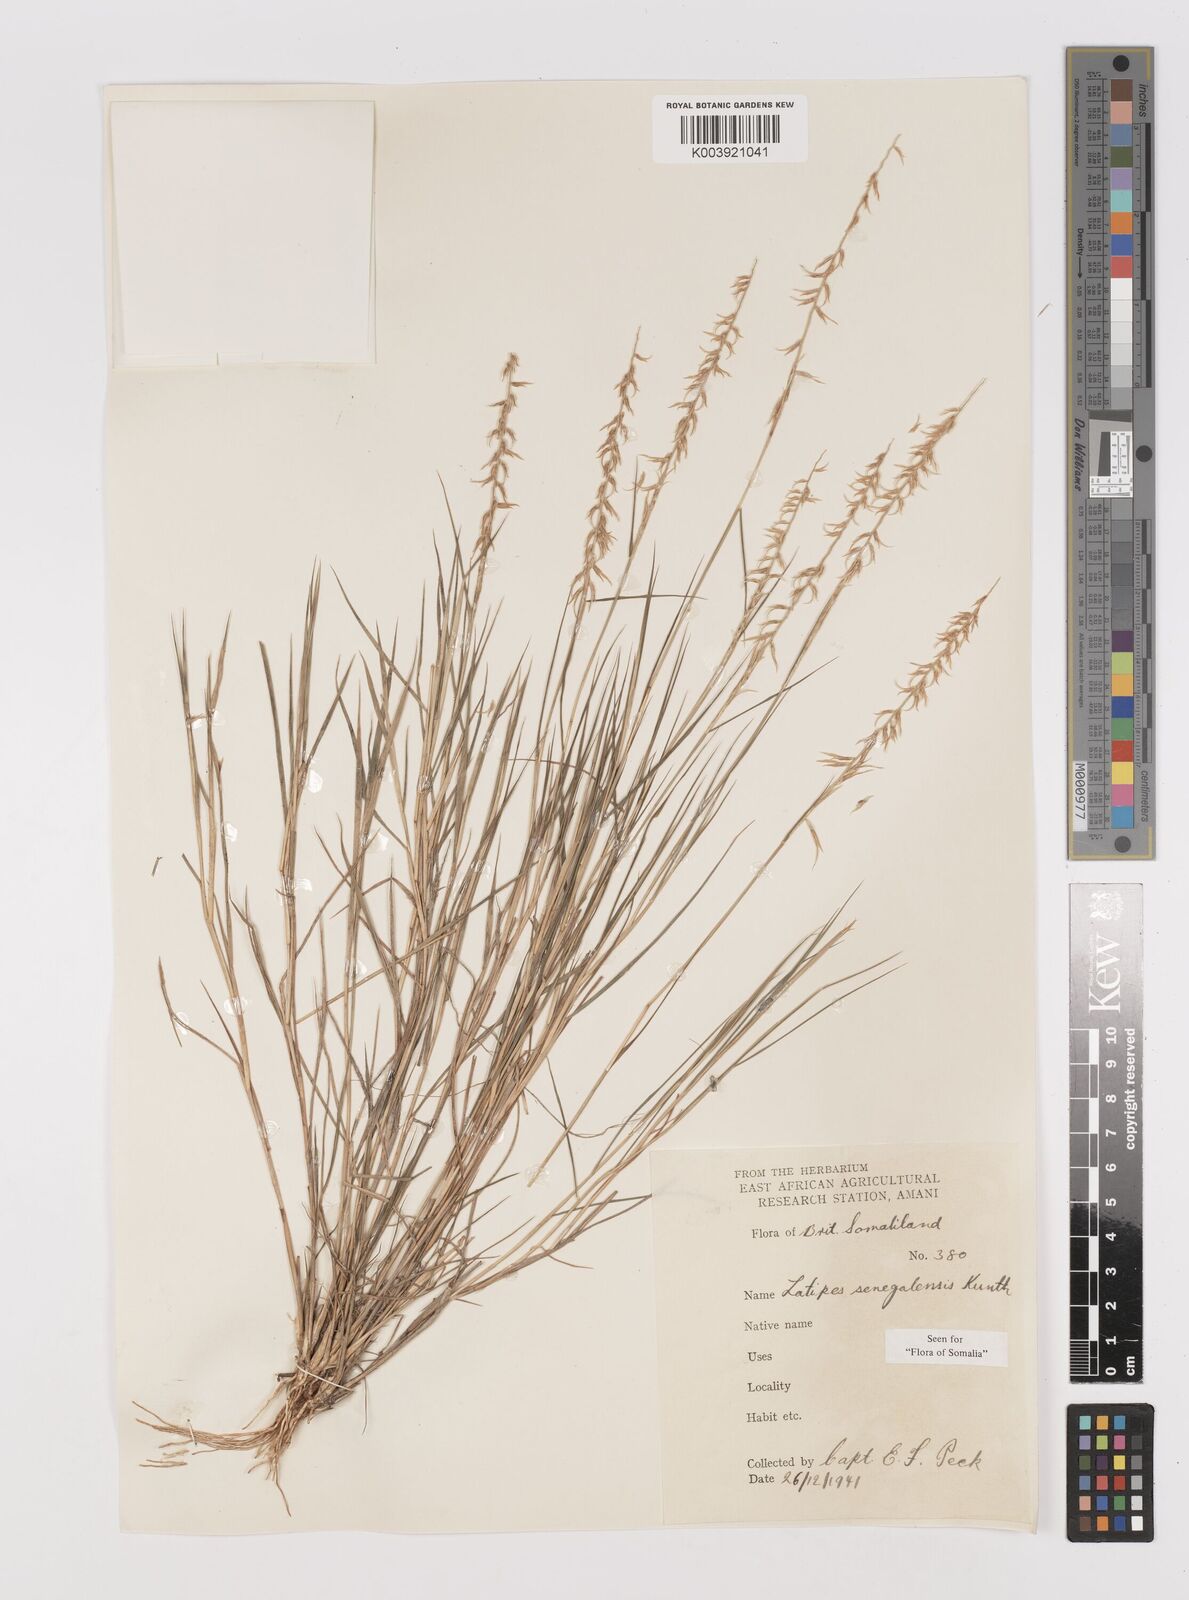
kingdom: Plantae
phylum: Tracheophyta
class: Liliopsida
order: Poales
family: Poaceae
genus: Leptothrium
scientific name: Leptothrium senegalense
